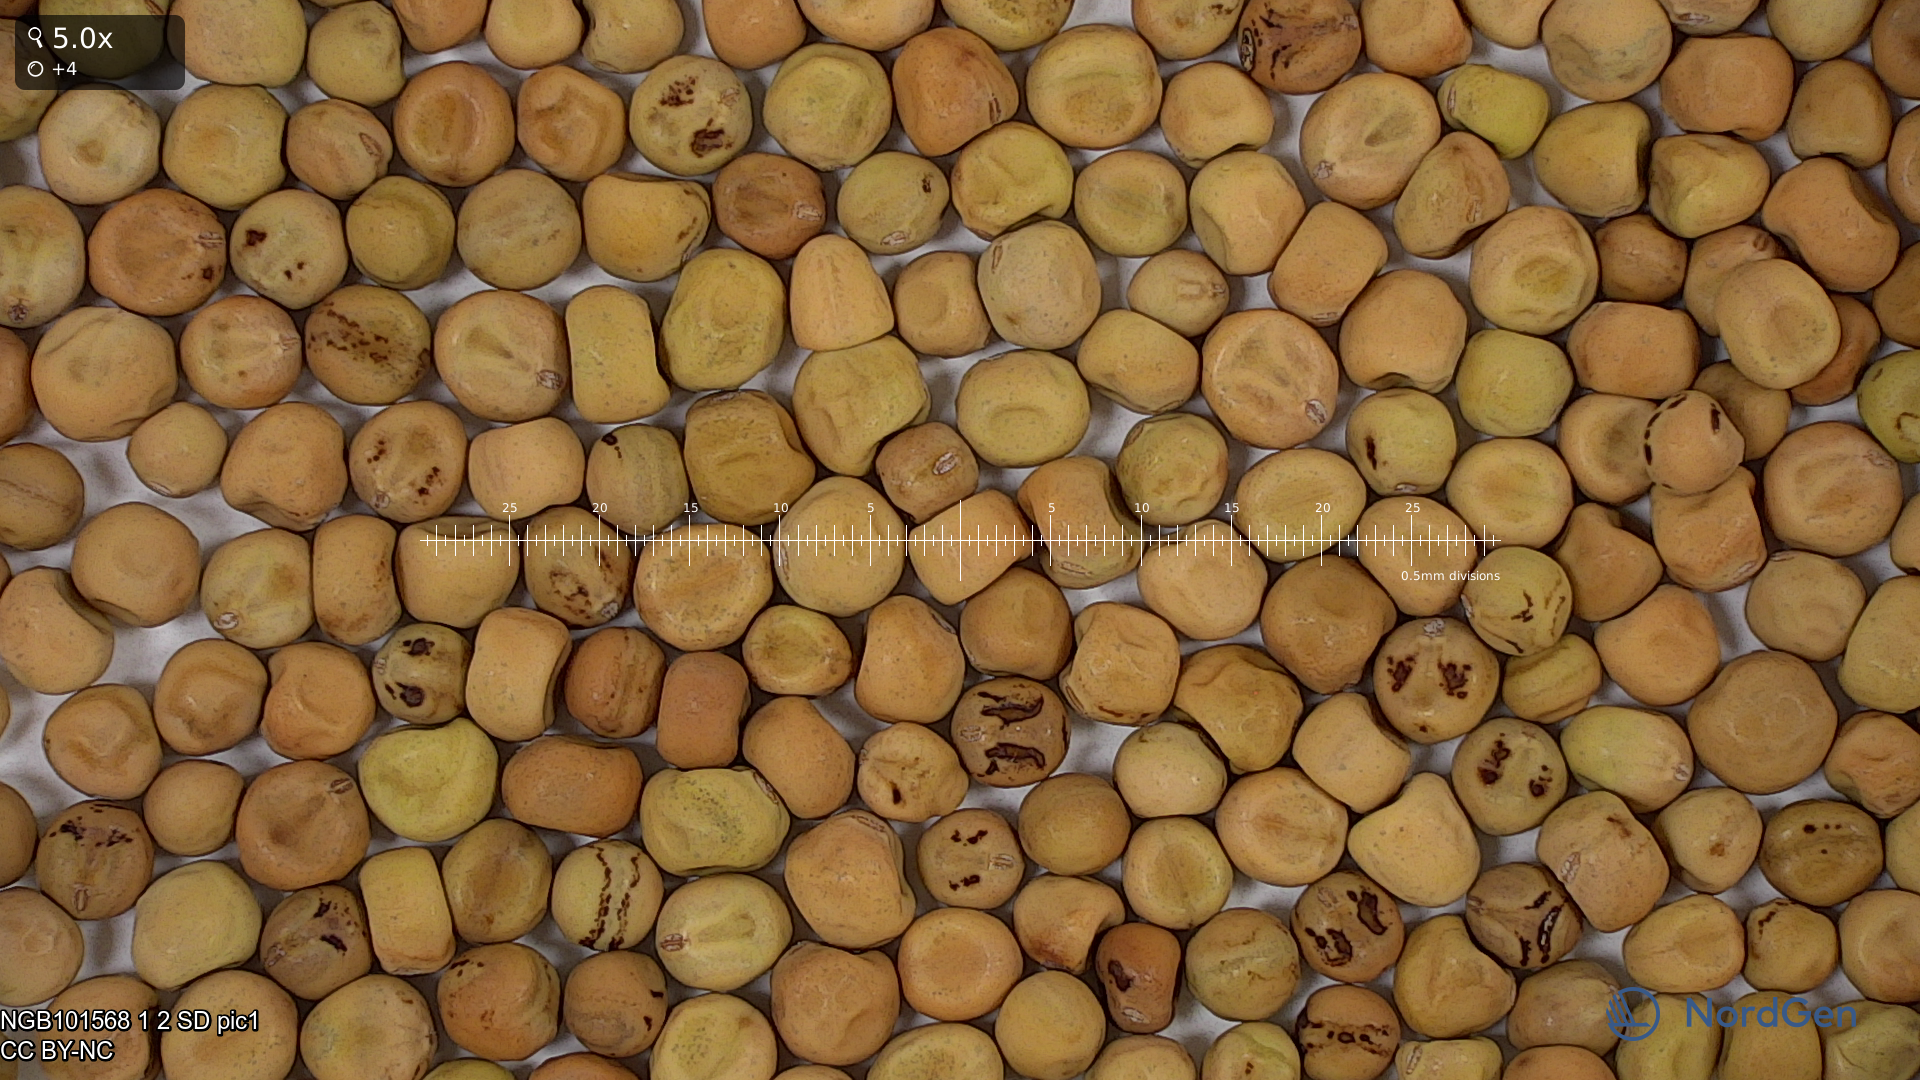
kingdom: Plantae
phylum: Tracheophyta
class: Magnoliopsida
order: Fabales
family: Fabaceae
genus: Lathyrus
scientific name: Lathyrus oleraceus
